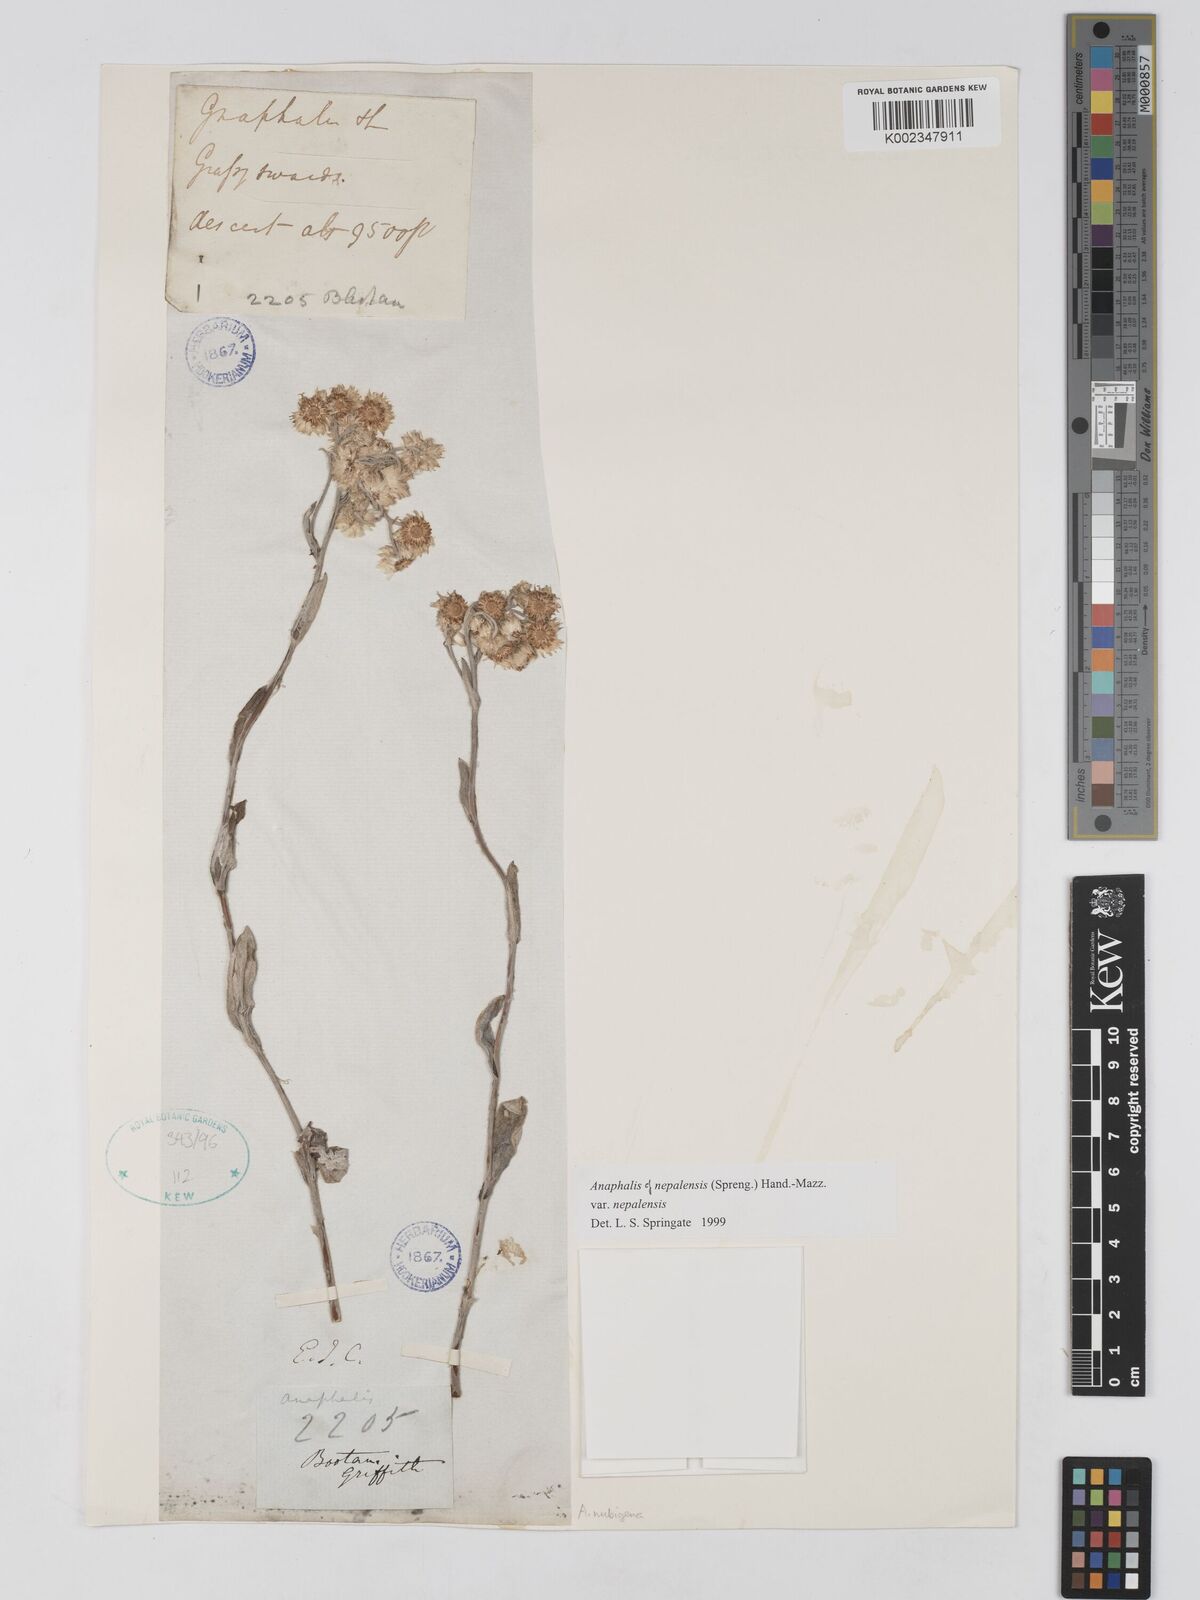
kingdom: Plantae
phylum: Tracheophyta
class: Magnoliopsida
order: Asterales
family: Asteraceae
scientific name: Asteraceae
